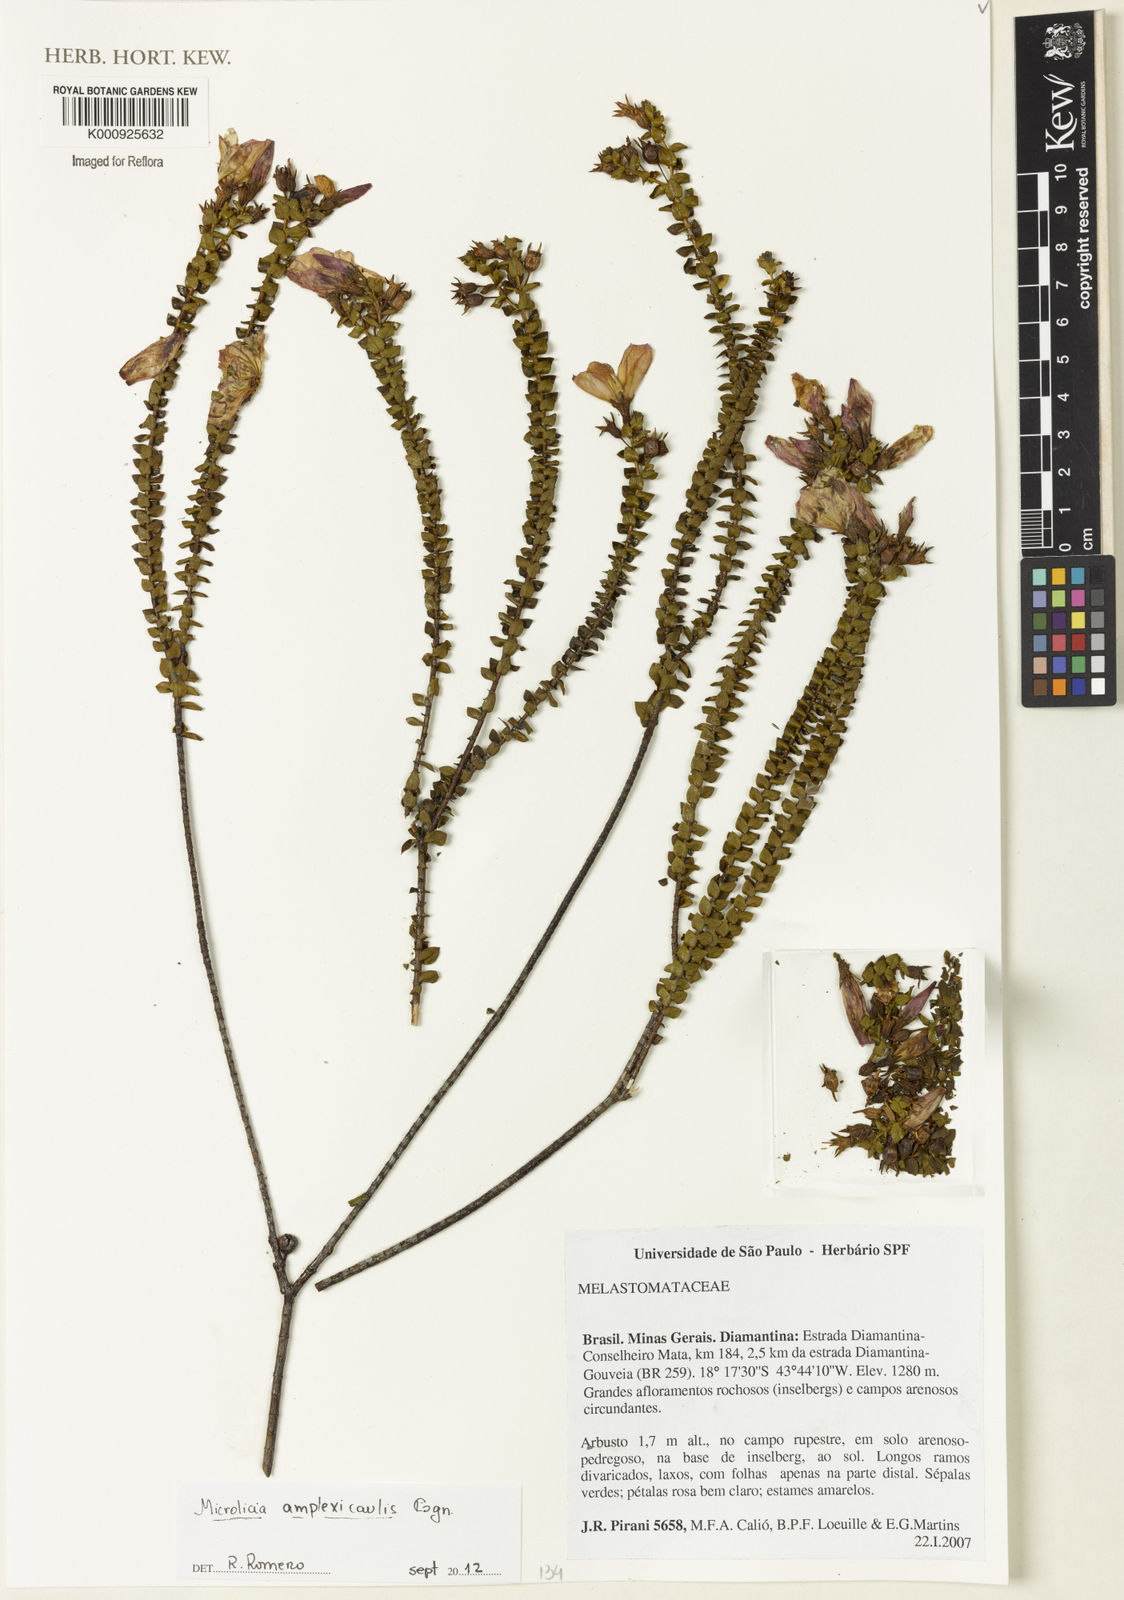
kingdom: Plantae
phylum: Tracheophyta
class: Magnoliopsida
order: Myrtales
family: Melastomataceae
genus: Microlicia
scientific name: Microlicia amplexicaulis
